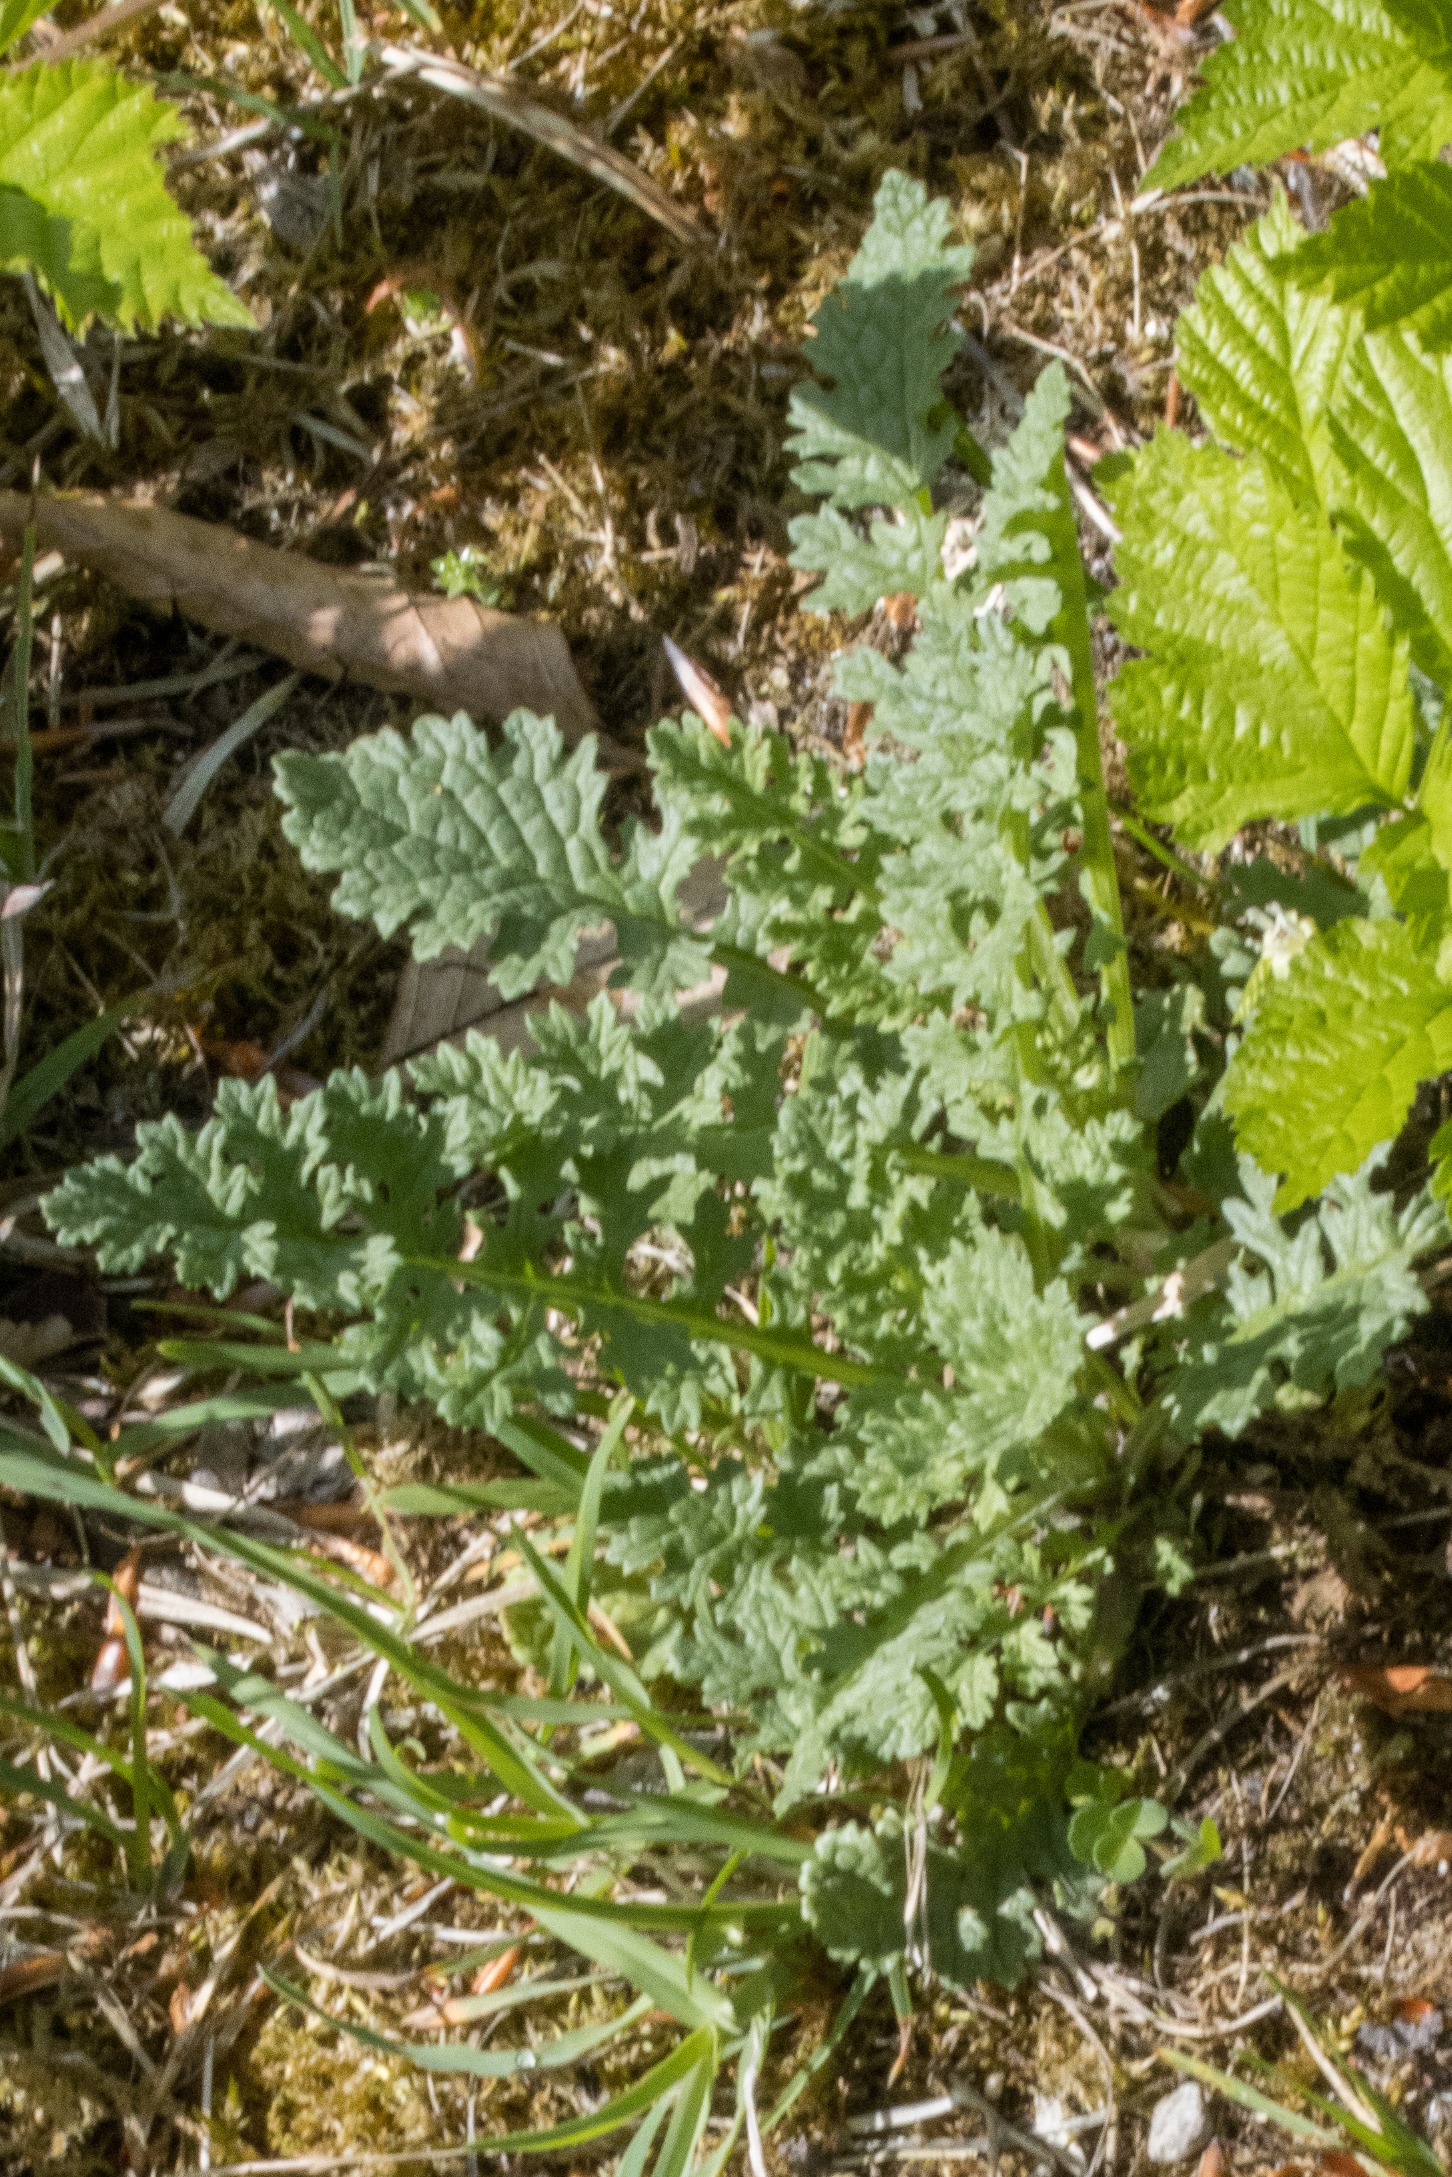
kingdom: Plantae
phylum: Tracheophyta
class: Magnoliopsida
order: Asterales
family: Asteraceae
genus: Jacobaea
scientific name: Jacobaea vulgaris
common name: Eng-brandbæger
